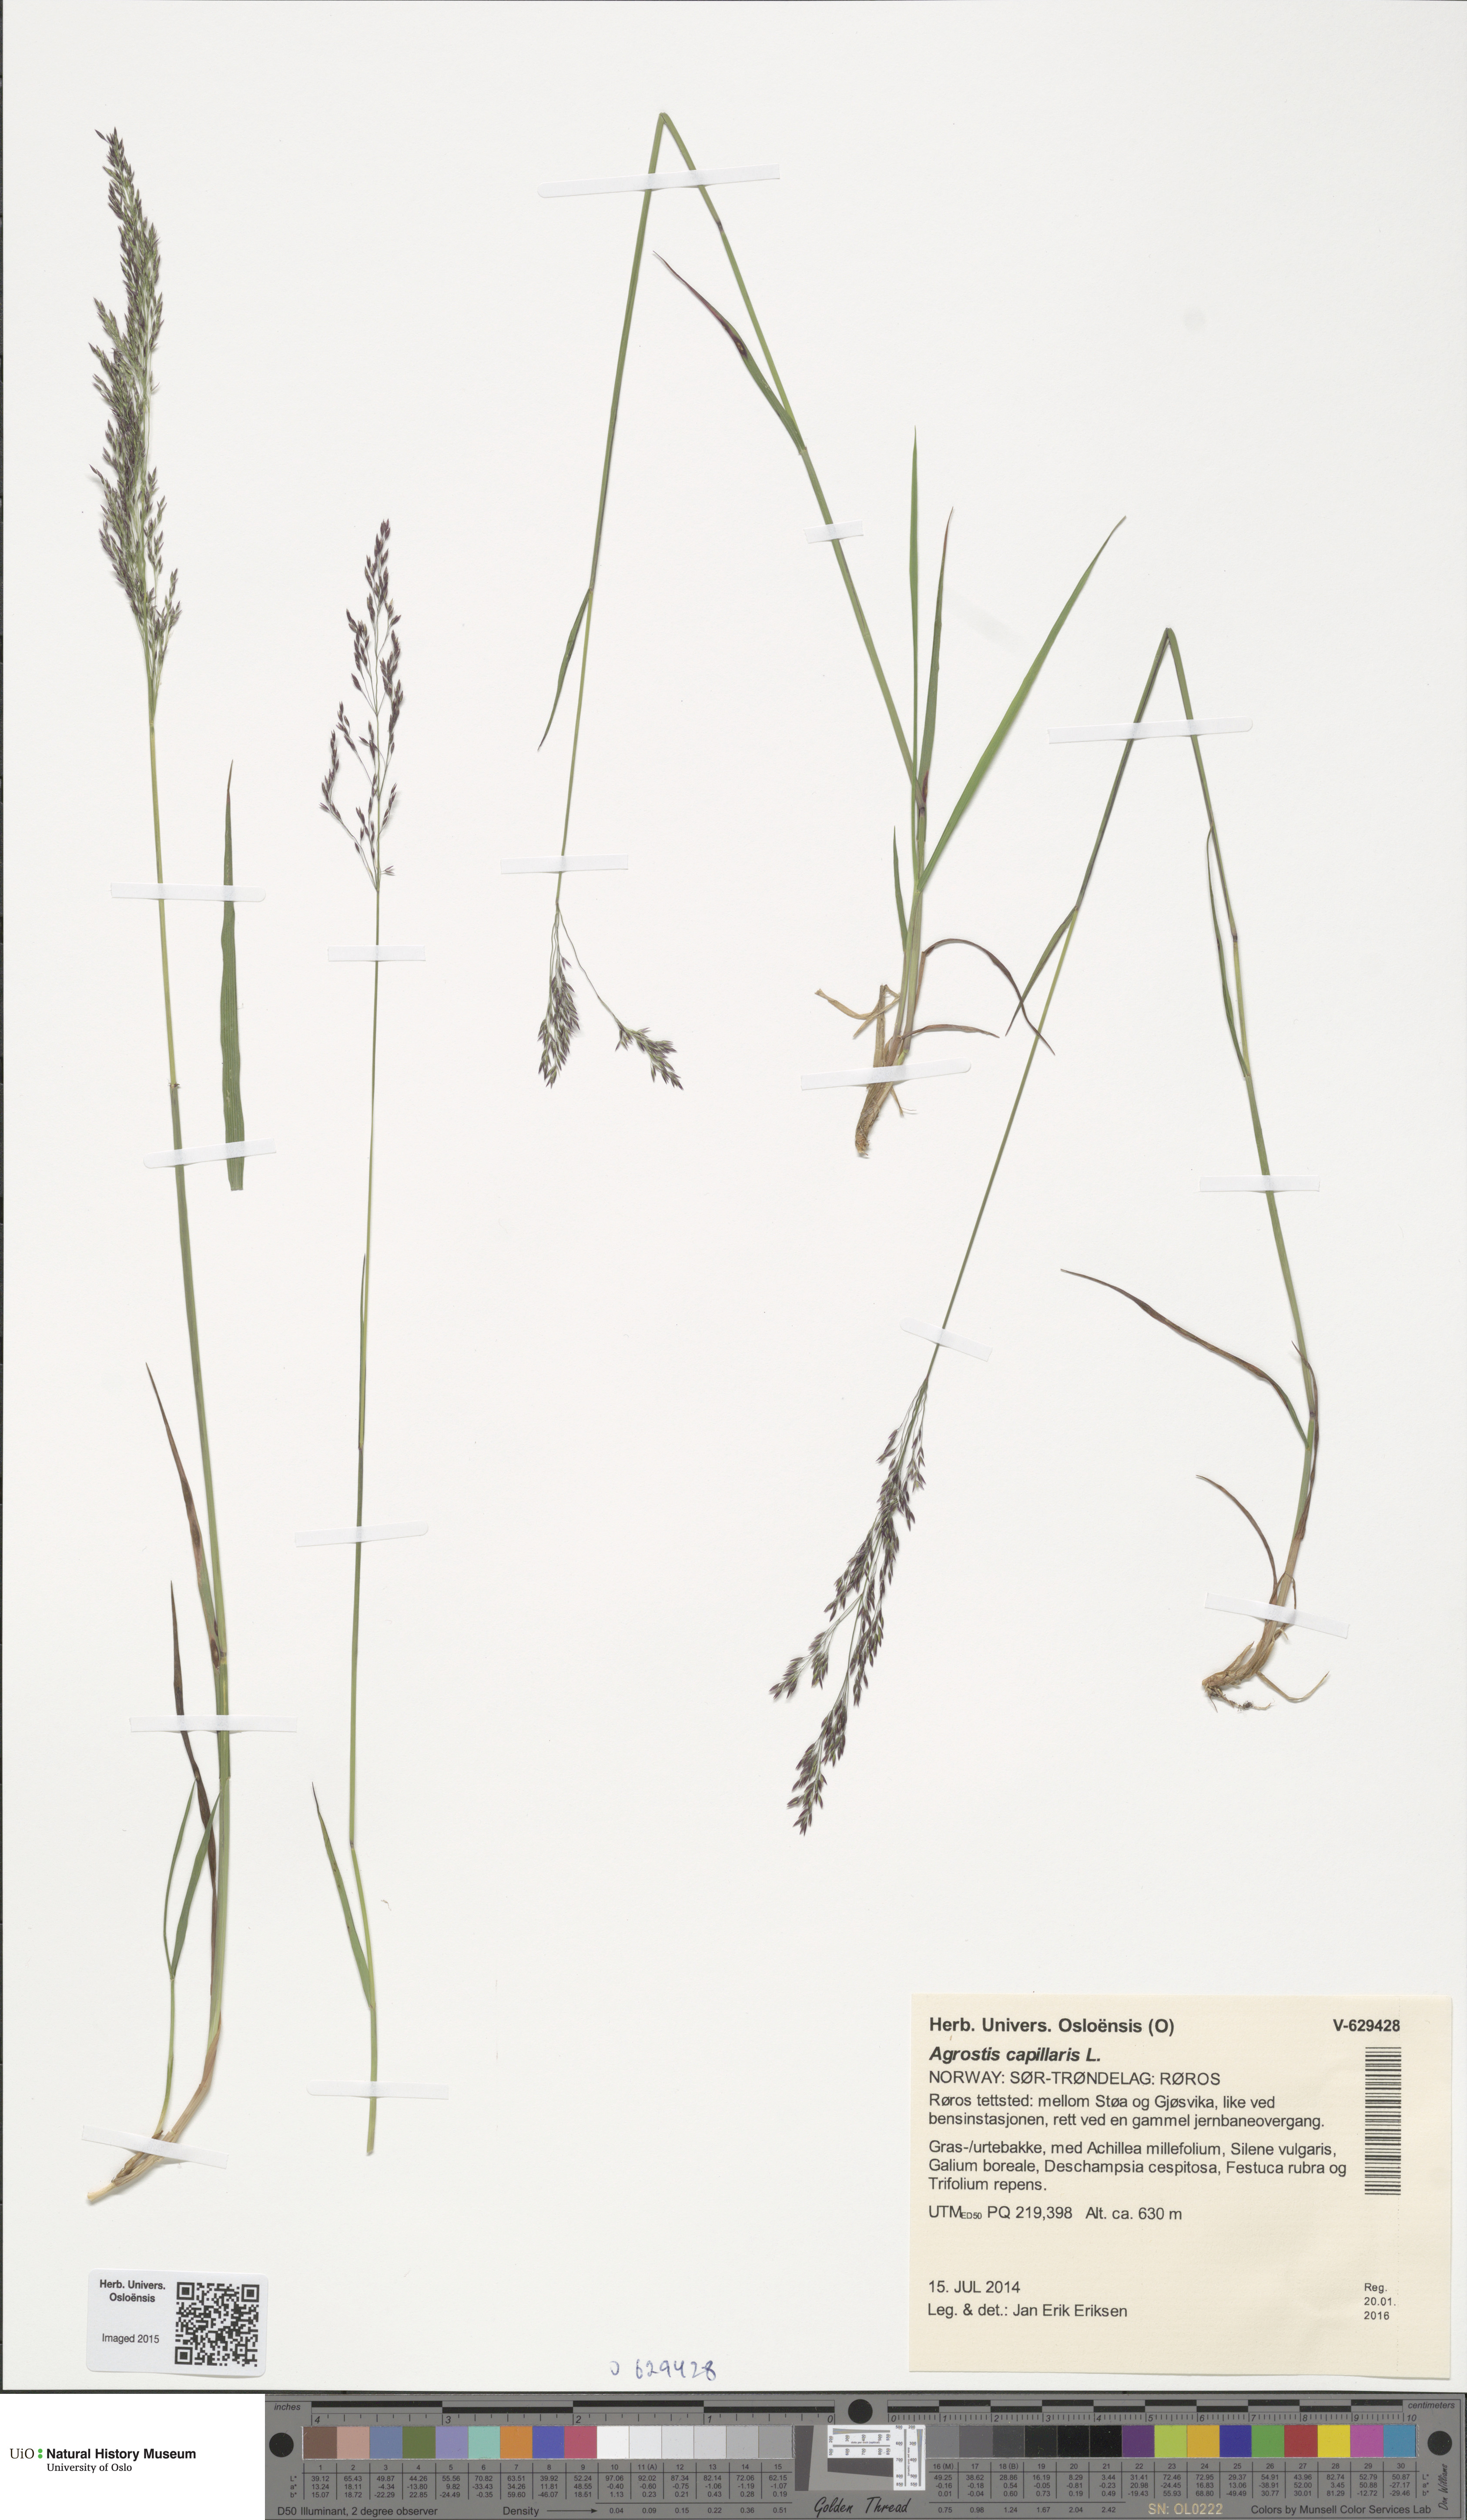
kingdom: Plantae
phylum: Tracheophyta
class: Liliopsida
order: Poales
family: Poaceae
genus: Agrostis
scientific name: Agrostis capillaris
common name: Colonial bentgrass
